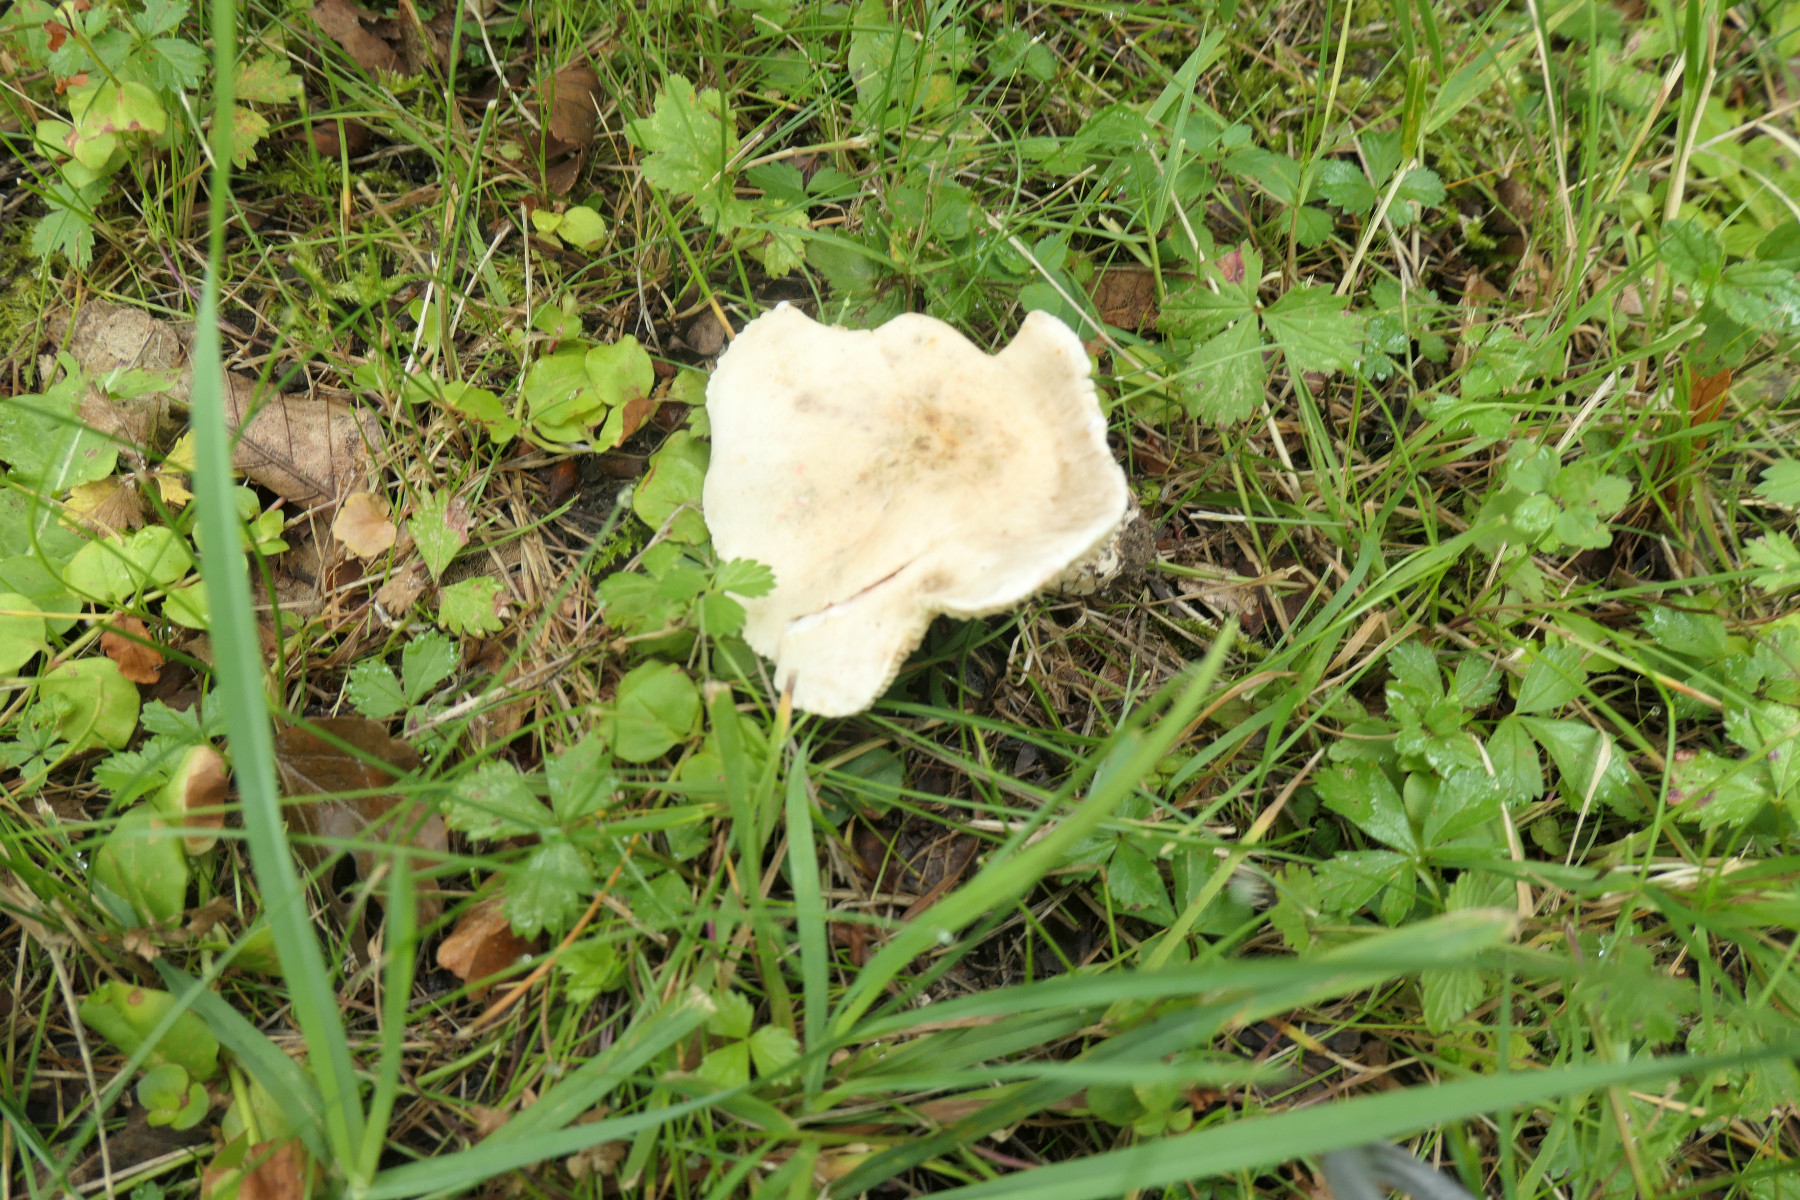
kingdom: Fungi
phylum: Basidiomycota
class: Agaricomycetes
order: Russulales
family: Russulaceae
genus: Lactarius
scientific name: Lactarius azonites
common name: røggrå mælkehat
